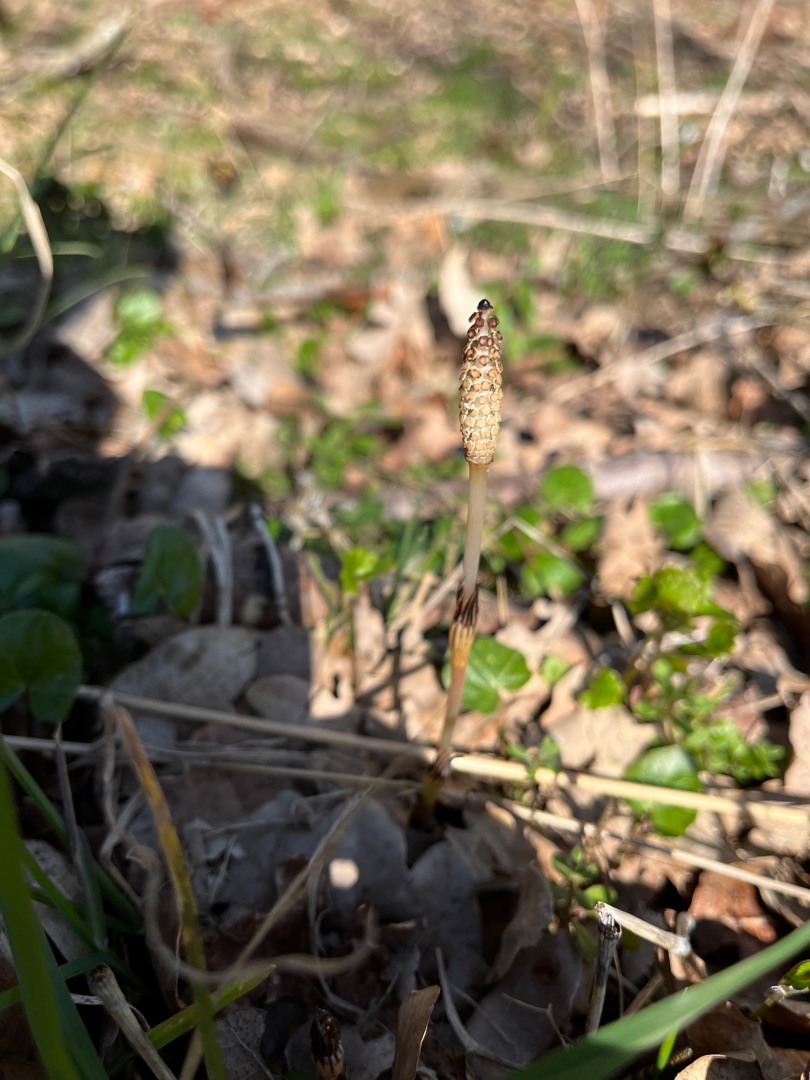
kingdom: Plantae
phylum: Tracheophyta
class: Polypodiopsida
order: Equisetales
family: Equisetaceae
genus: Equisetum
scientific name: Equisetum arvense
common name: Ager-padderok
